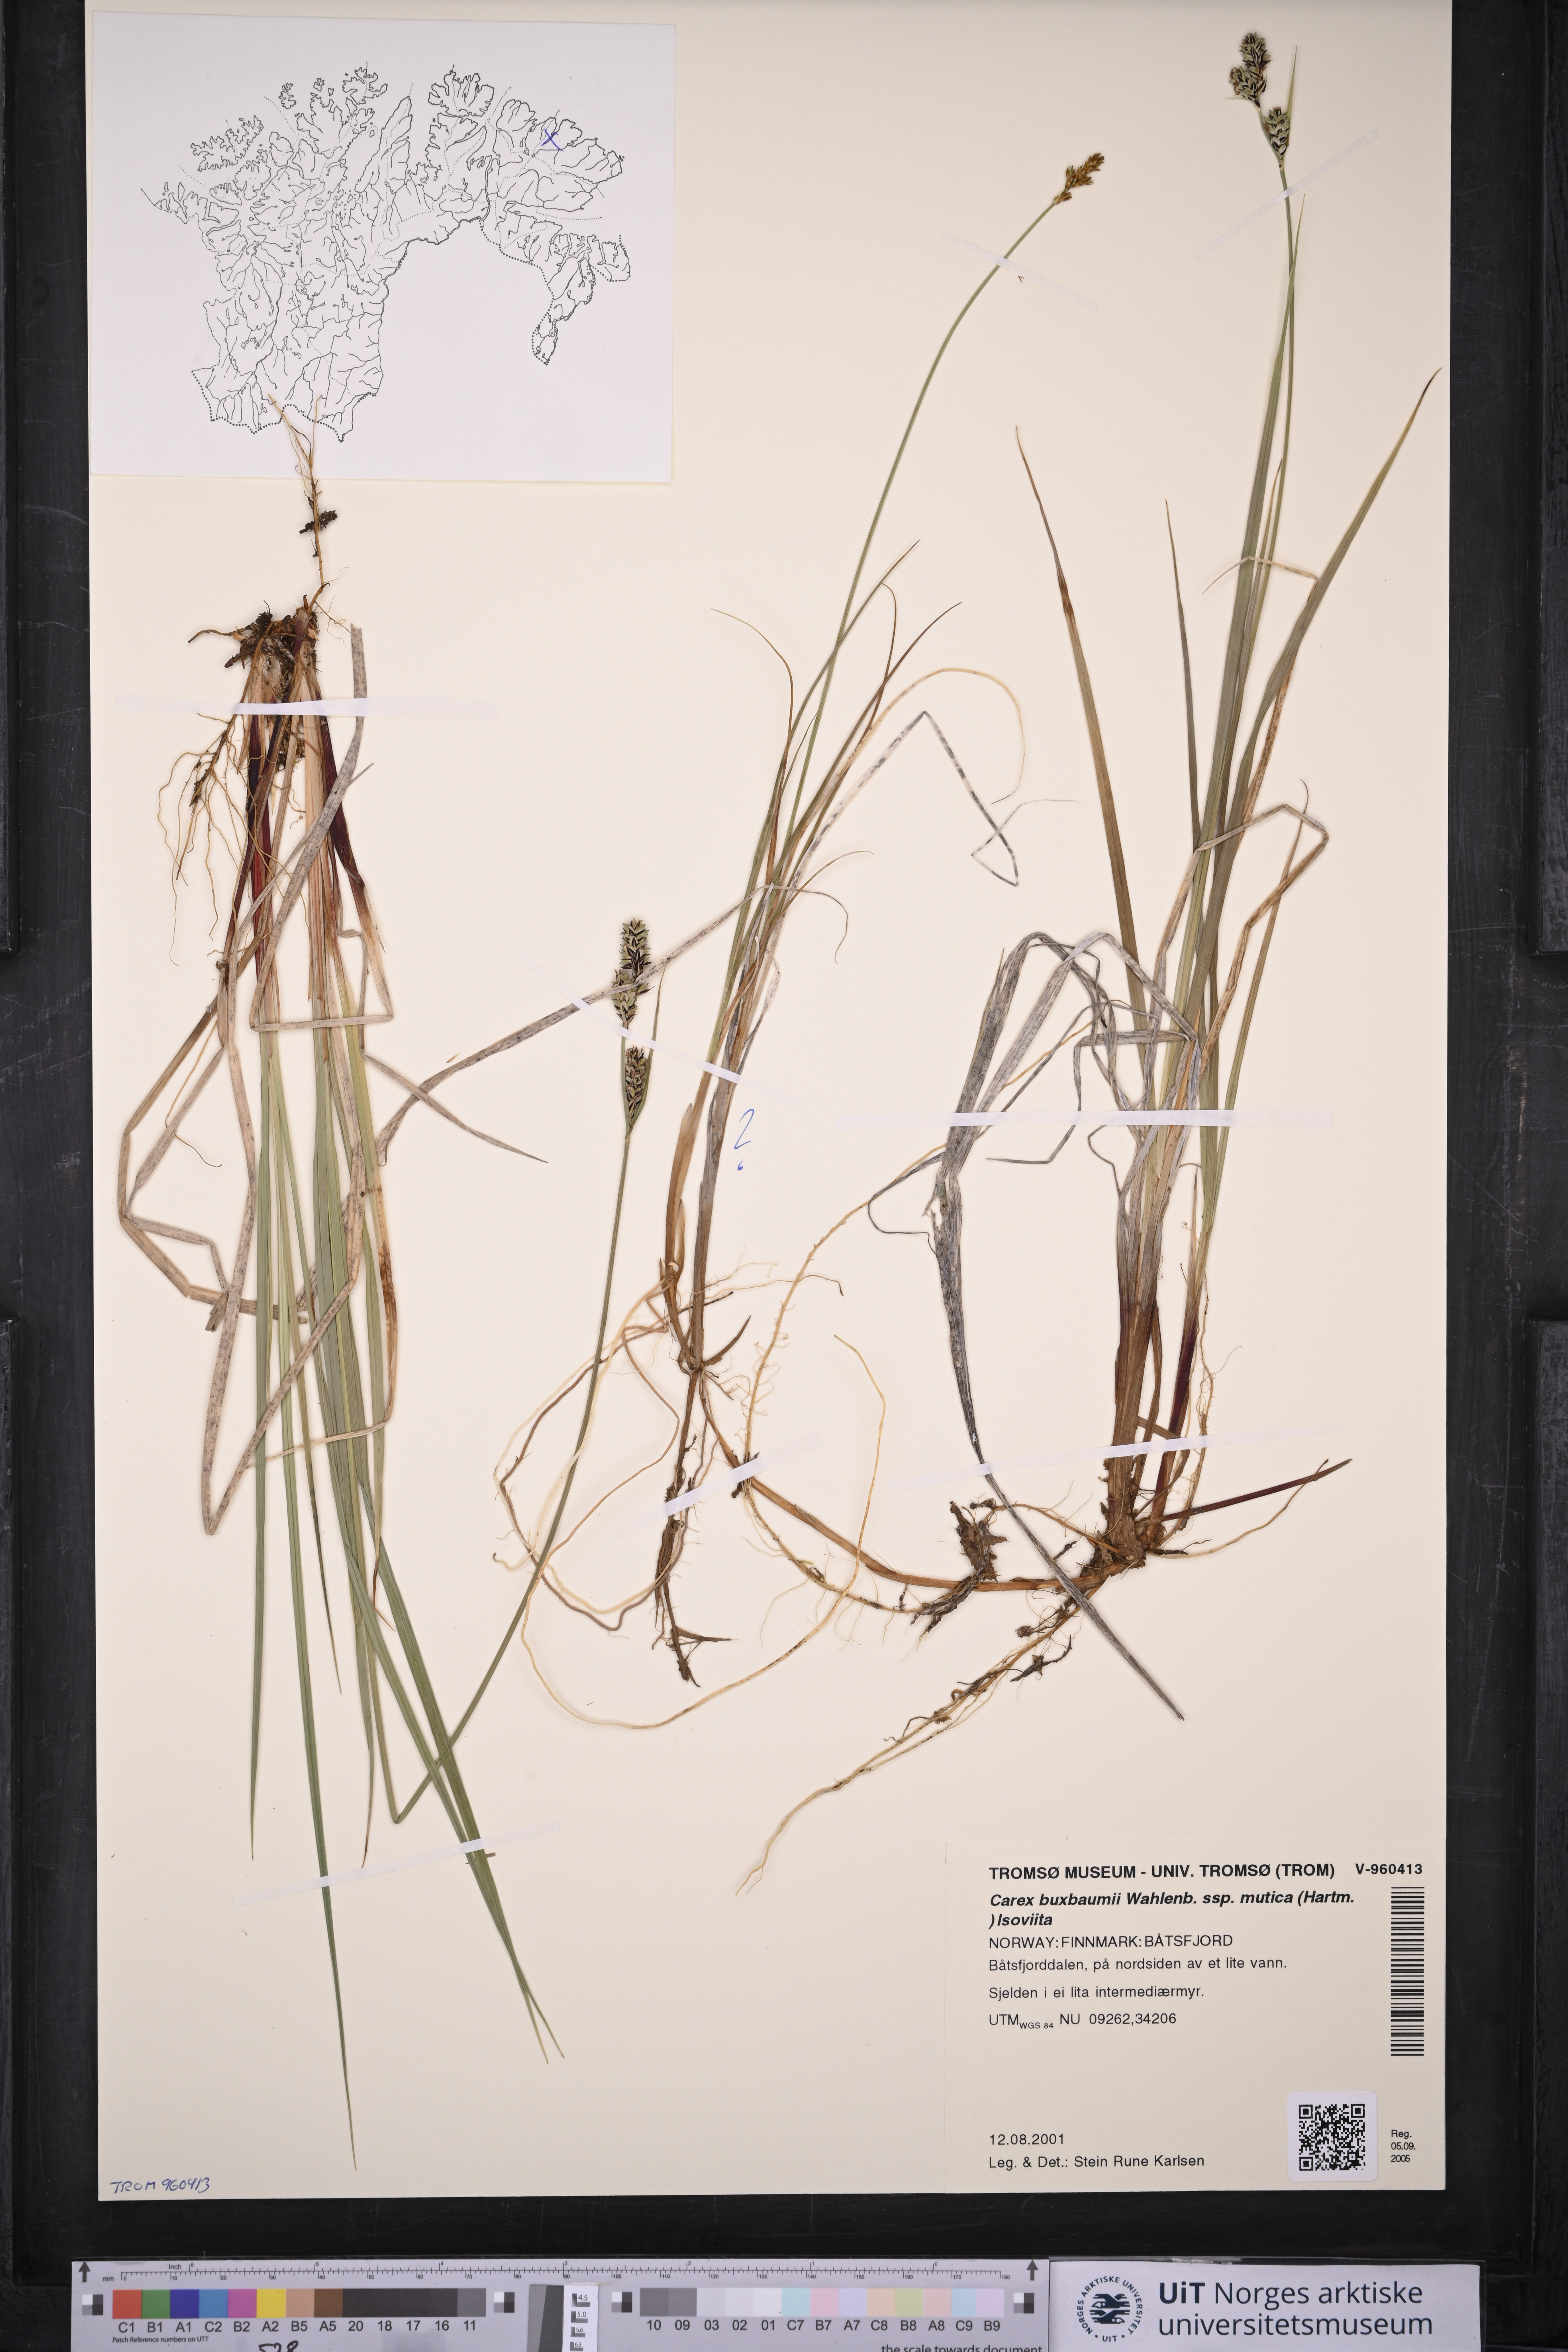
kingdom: Plantae
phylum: Tracheophyta
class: Liliopsida
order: Poales
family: Cyperaceae
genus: Carex
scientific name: Carex adelostoma
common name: Circumpolar sedge
